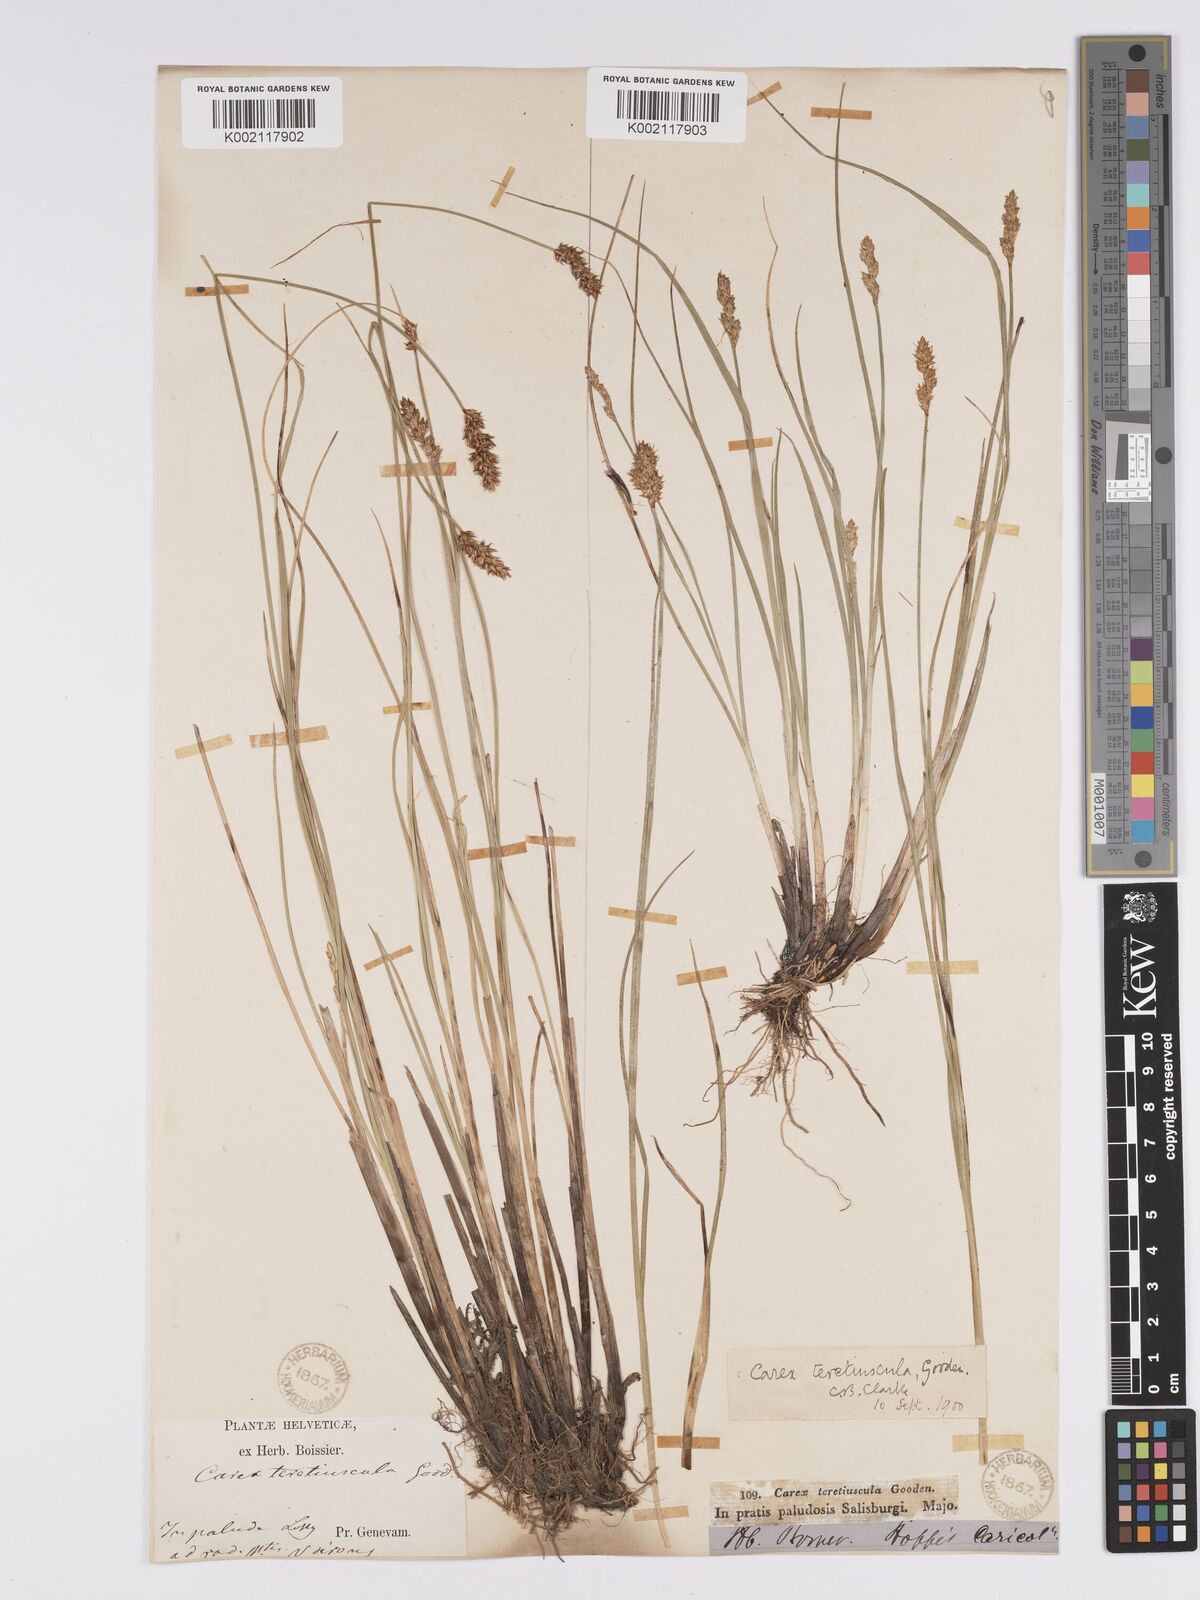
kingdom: Plantae
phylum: Tracheophyta
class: Liliopsida
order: Poales
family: Cyperaceae
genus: Carex
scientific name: Carex diandra
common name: Lesser tussock-sedge
